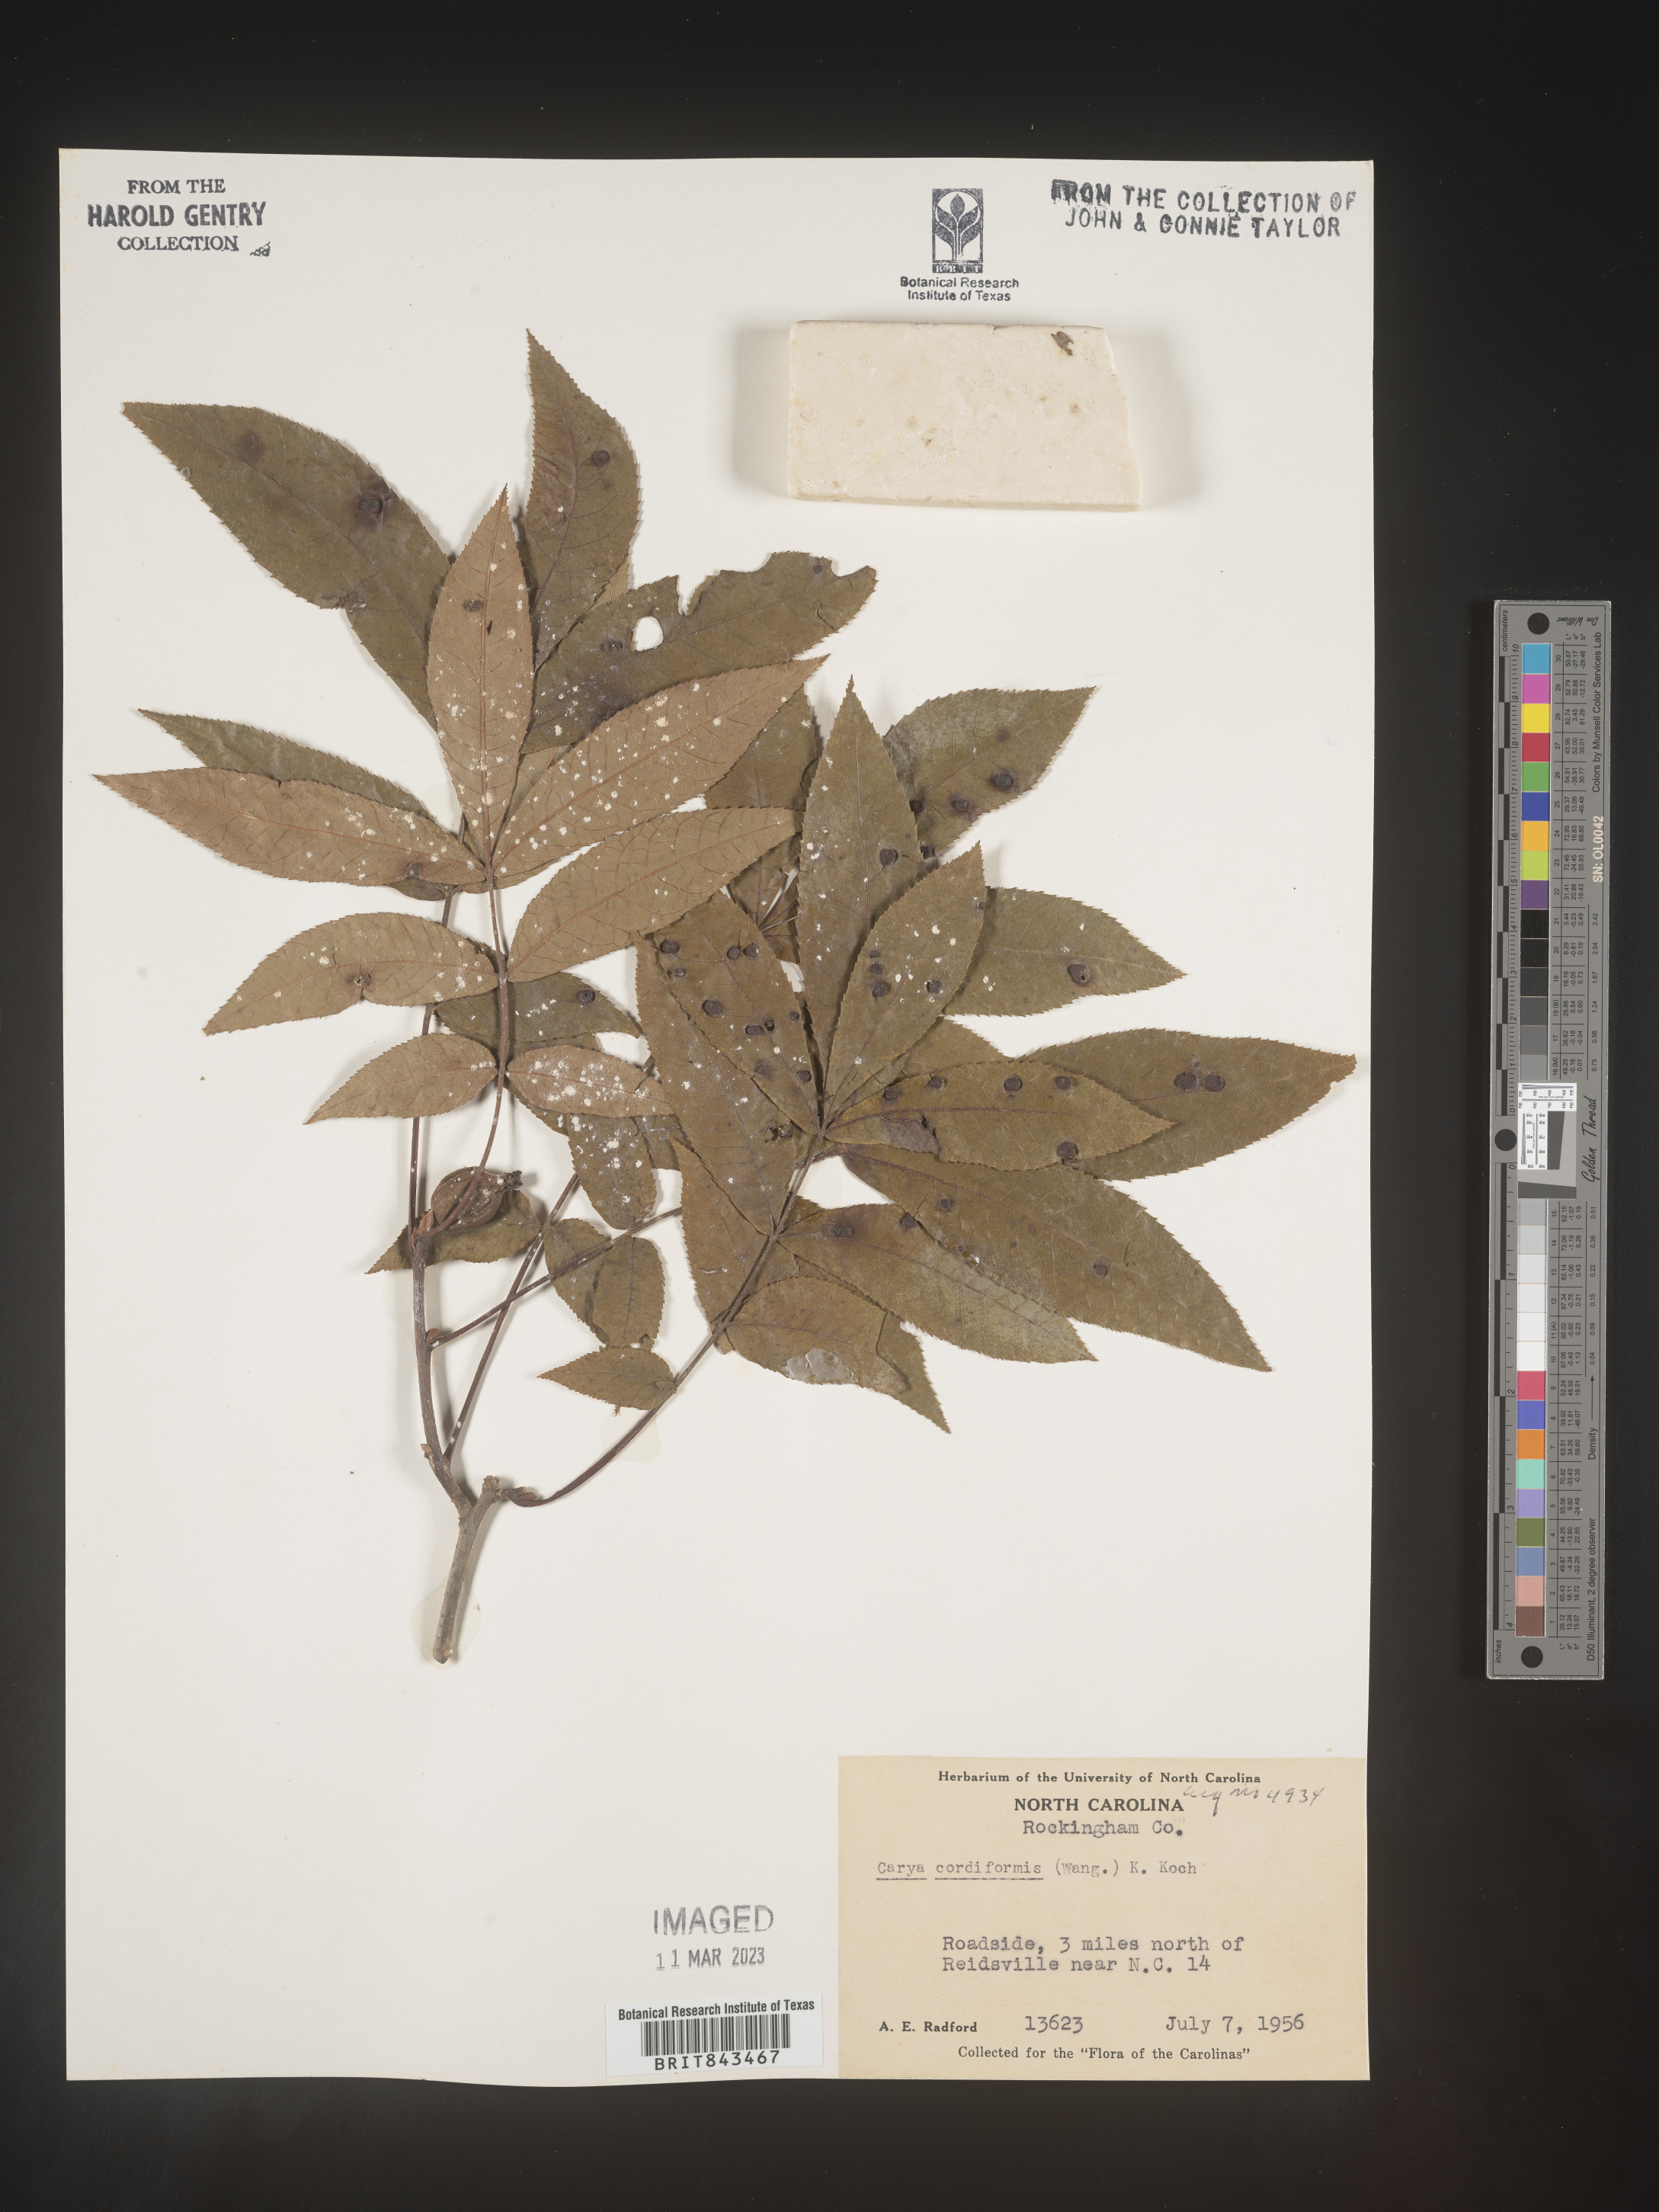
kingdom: Plantae
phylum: Tracheophyta
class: Magnoliopsida
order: Fagales
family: Juglandaceae
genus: Carya
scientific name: Carya cordiformis
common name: Bitternut hickory
